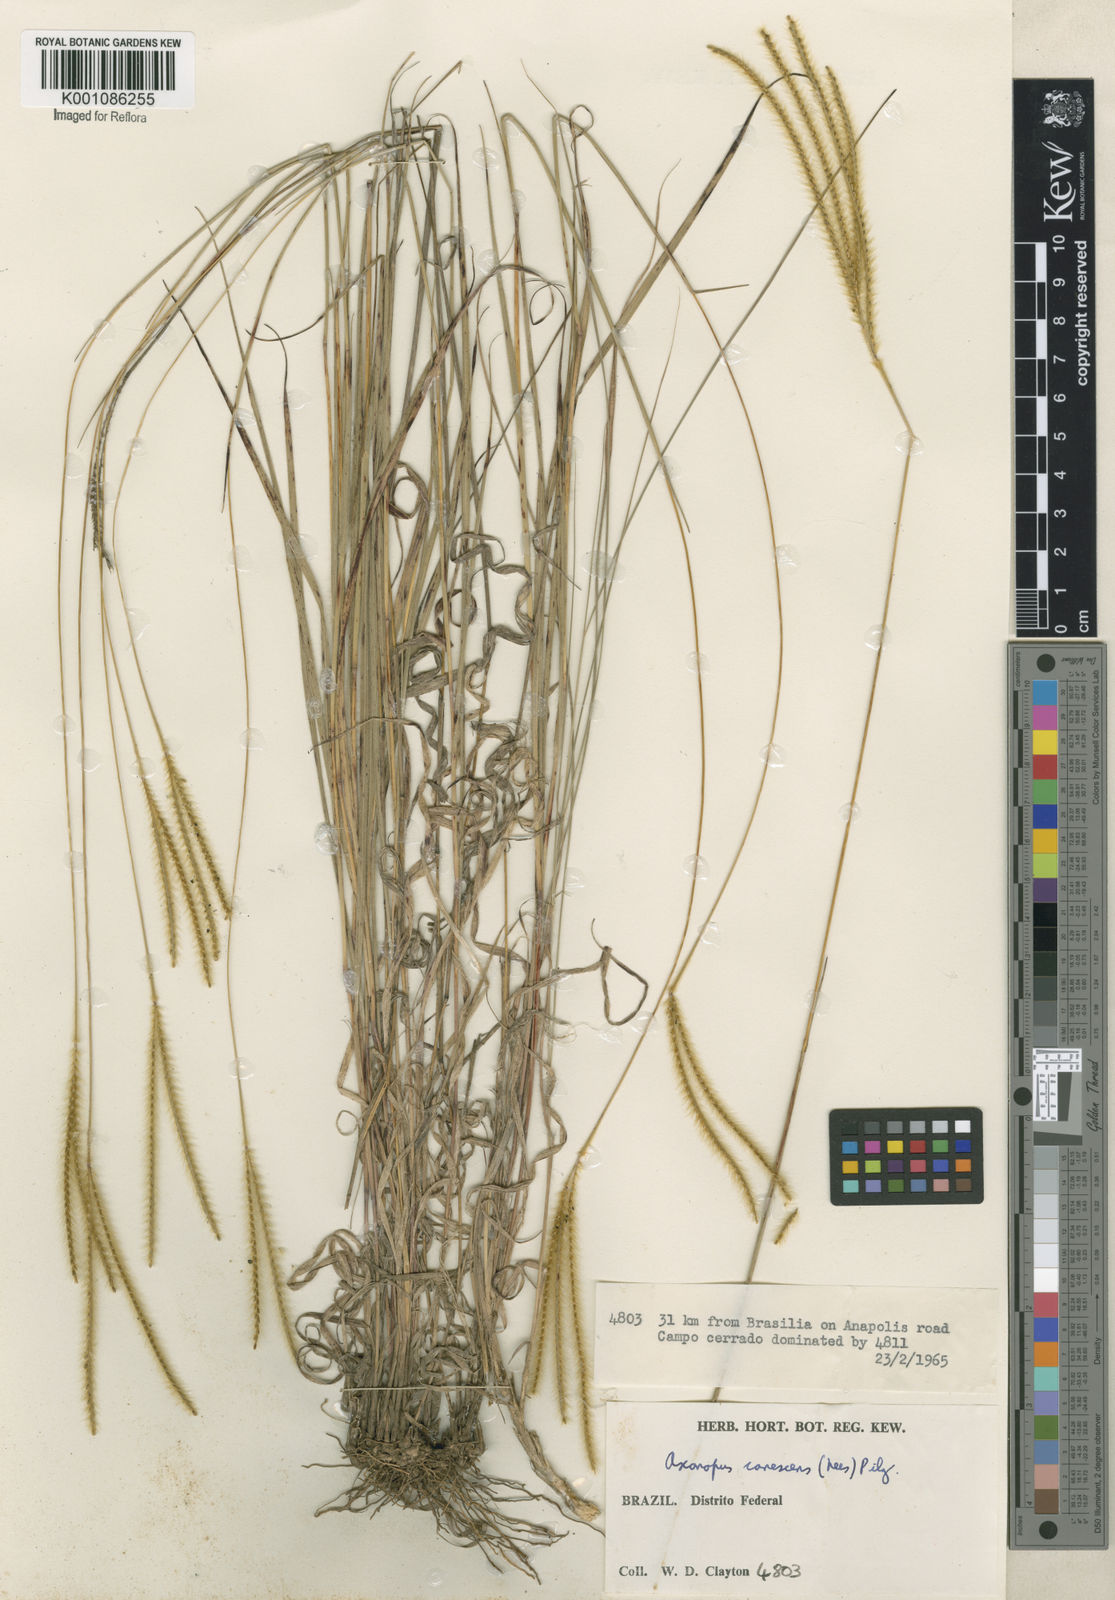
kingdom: Plantae
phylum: Tracheophyta
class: Liliopsida
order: Poales
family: Poaceae
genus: Axonopus
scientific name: Axonopus aureus
